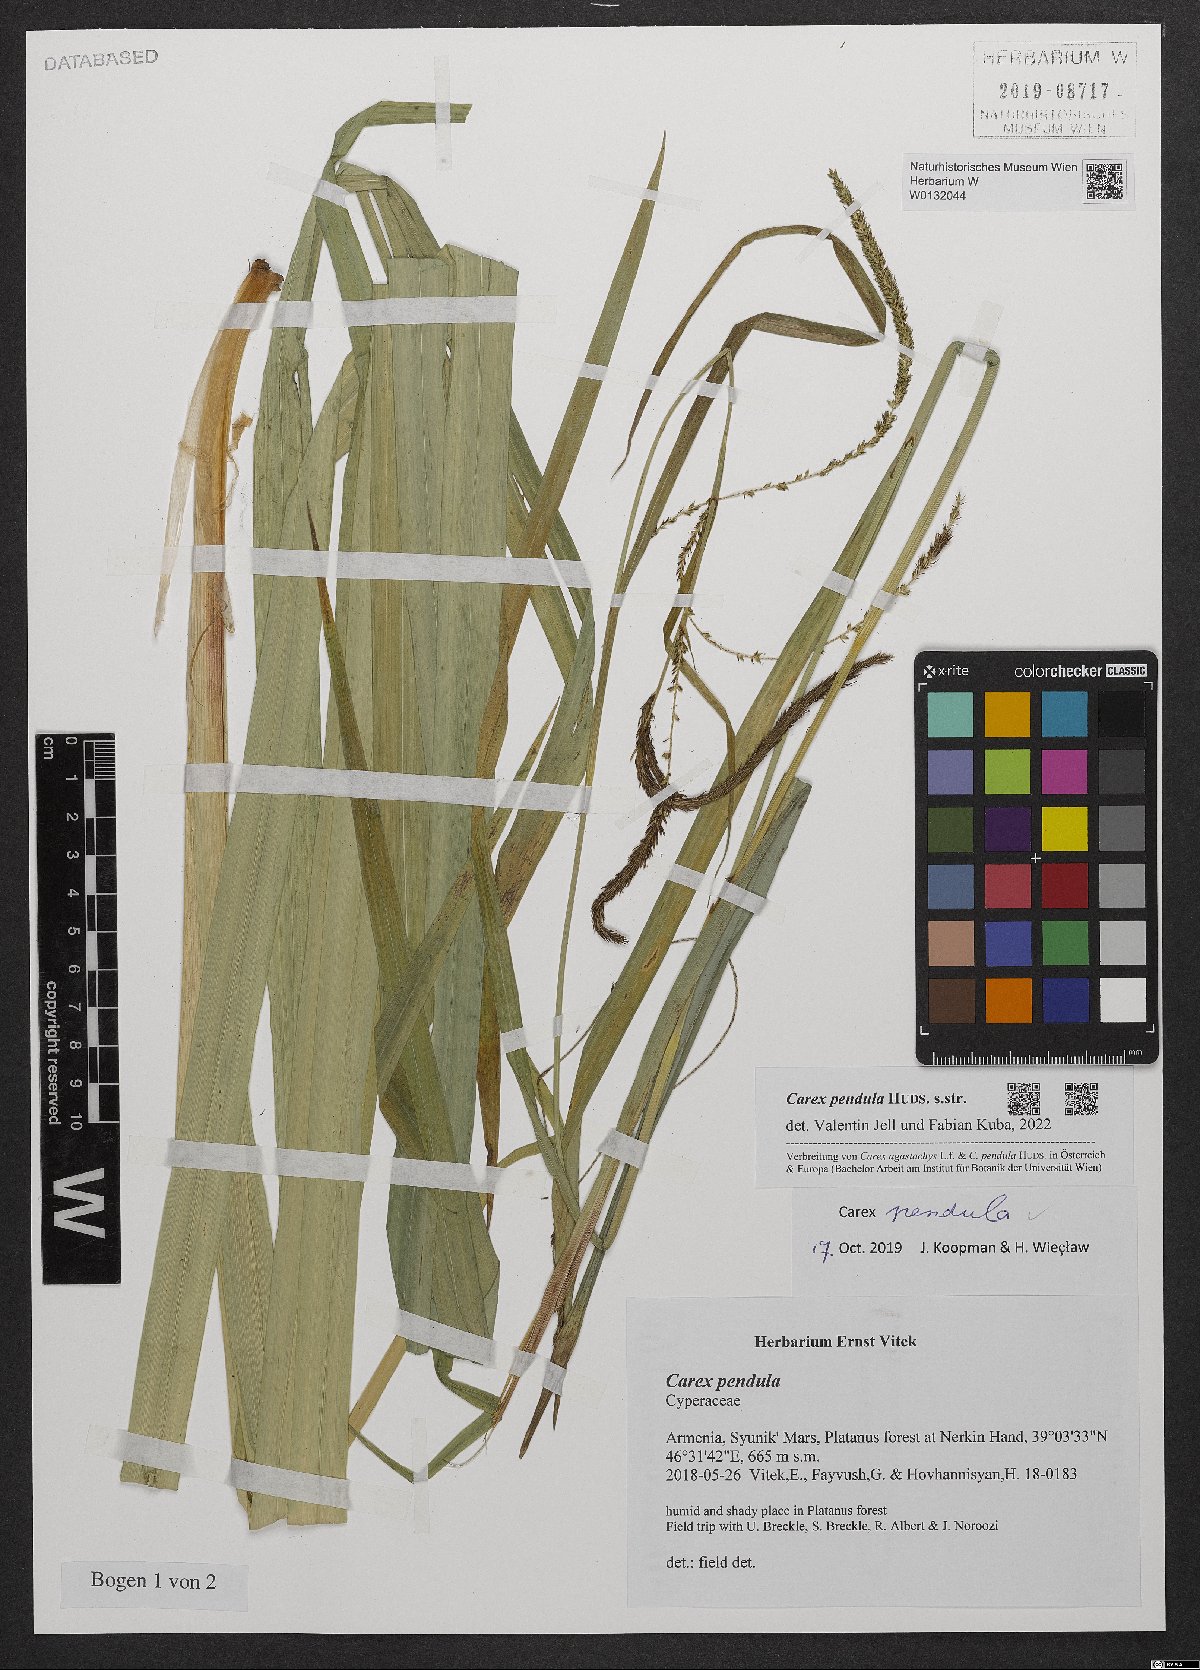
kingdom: Plantae
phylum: Tracheophyta
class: Liliopsida
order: Poales
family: Cyperaceae
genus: Carex
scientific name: Carex pendula
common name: Pendulous sedge
